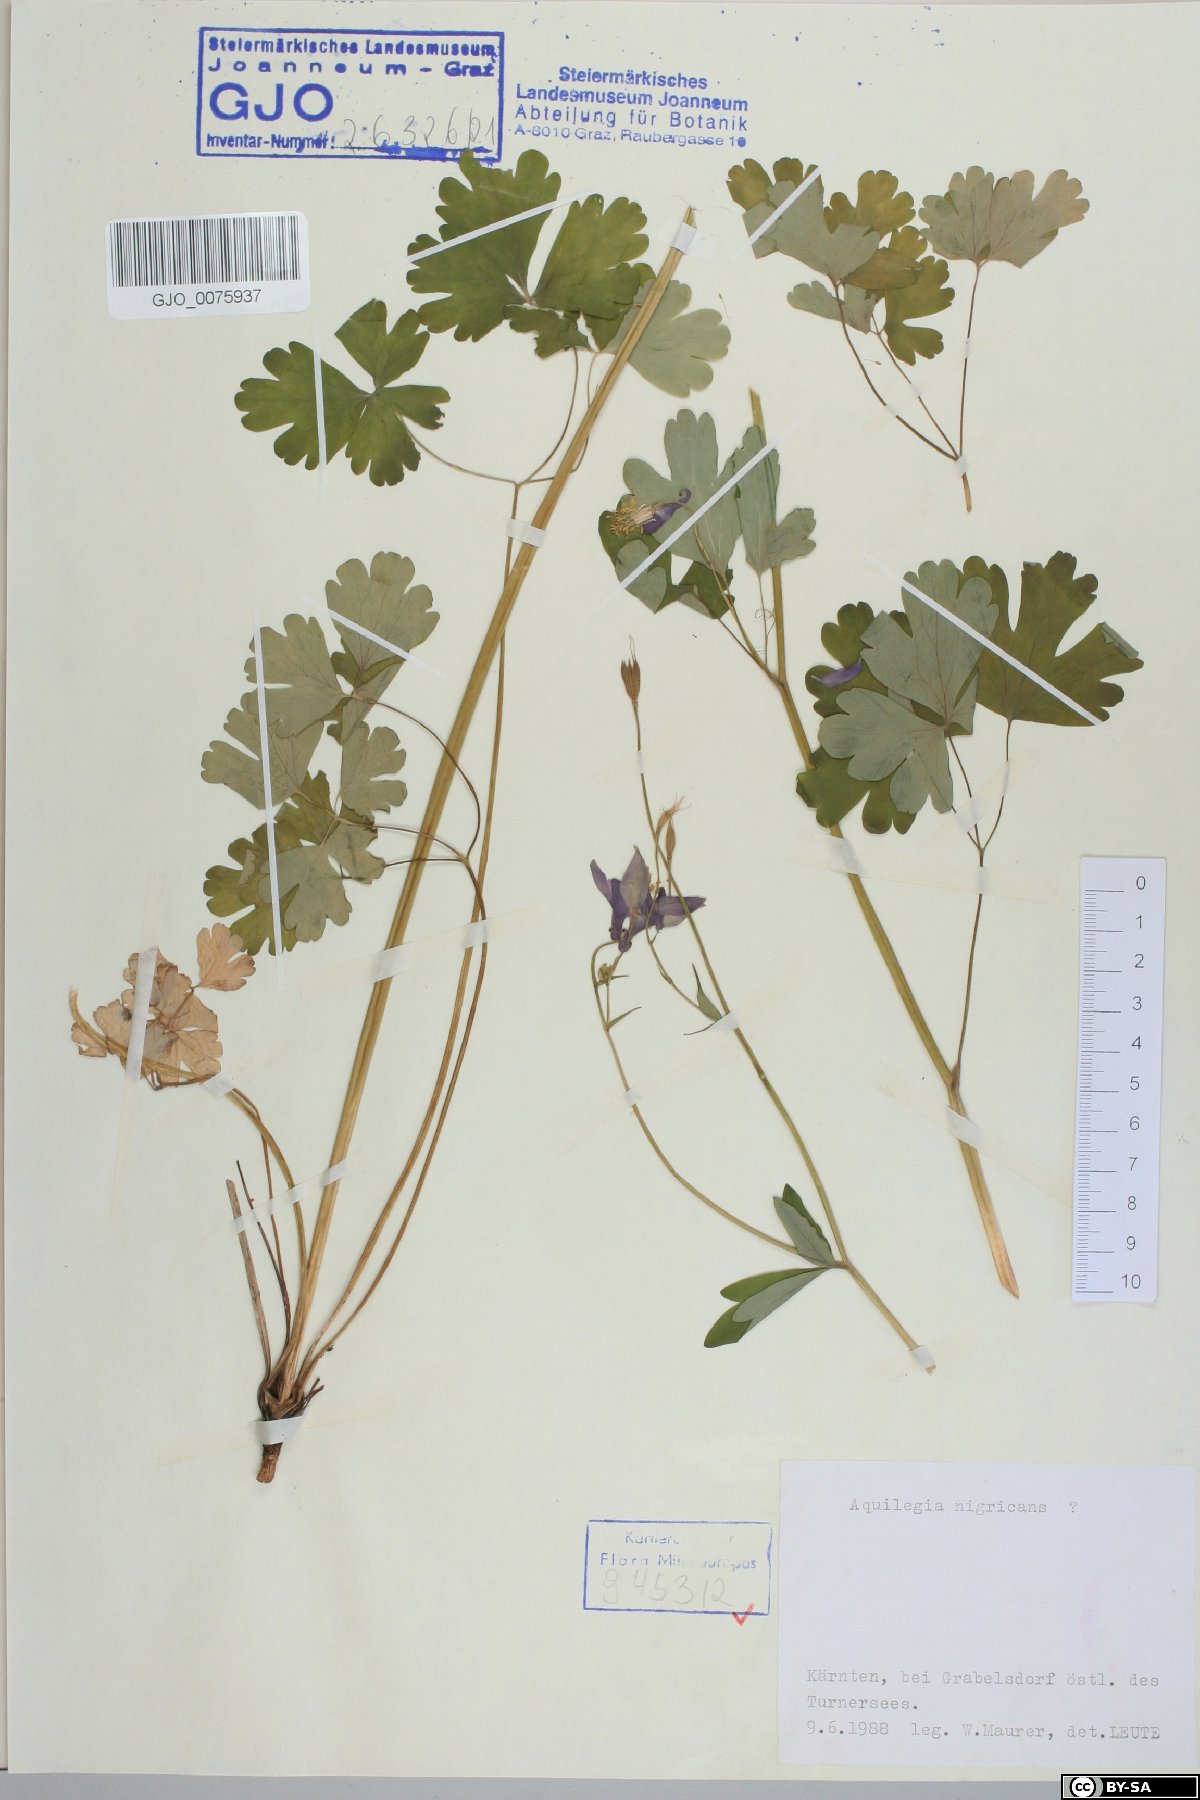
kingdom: Plantae
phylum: Tracheophyta
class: Magnoliopsida
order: Ranunculales
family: Ranunculaceae
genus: Aquilegia
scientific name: Aquilegia nigricans
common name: Bulgarian columbine
